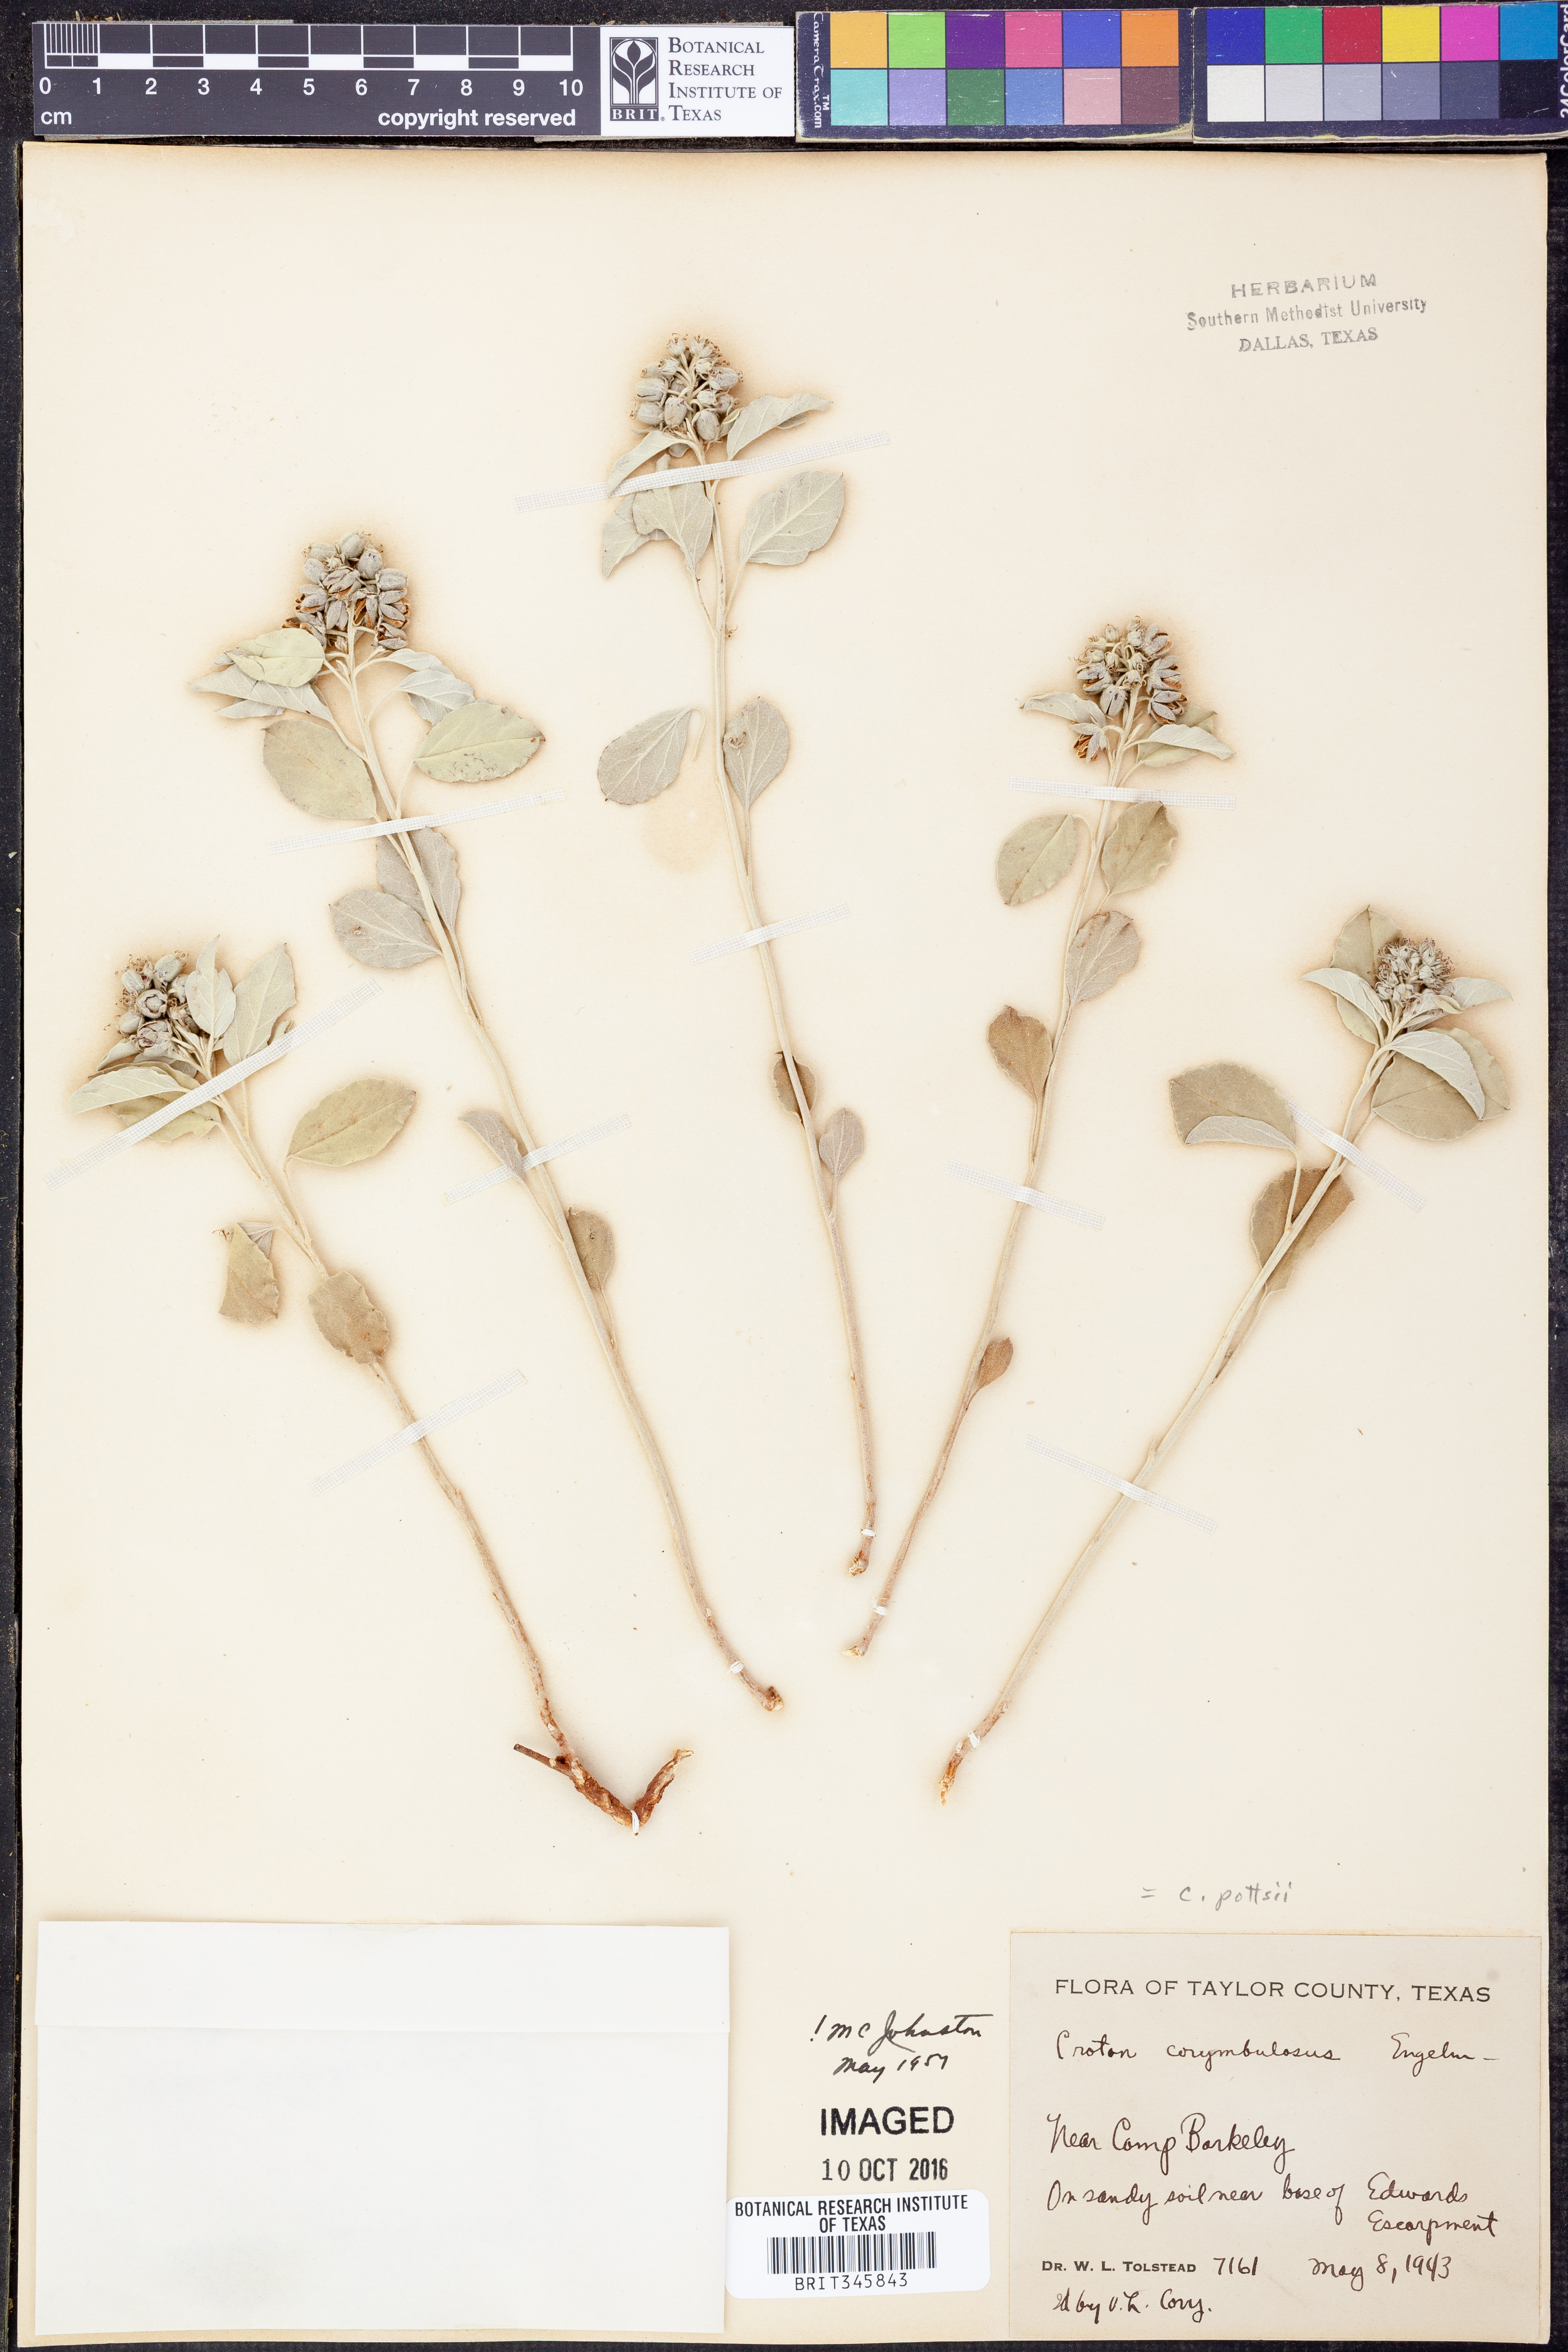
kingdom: Plantae
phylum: Tracheophyta
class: Magnoliopsida
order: Malpighiales
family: Euphorbiaceae
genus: Croton
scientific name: Croton pottsii
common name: Leatherweed
